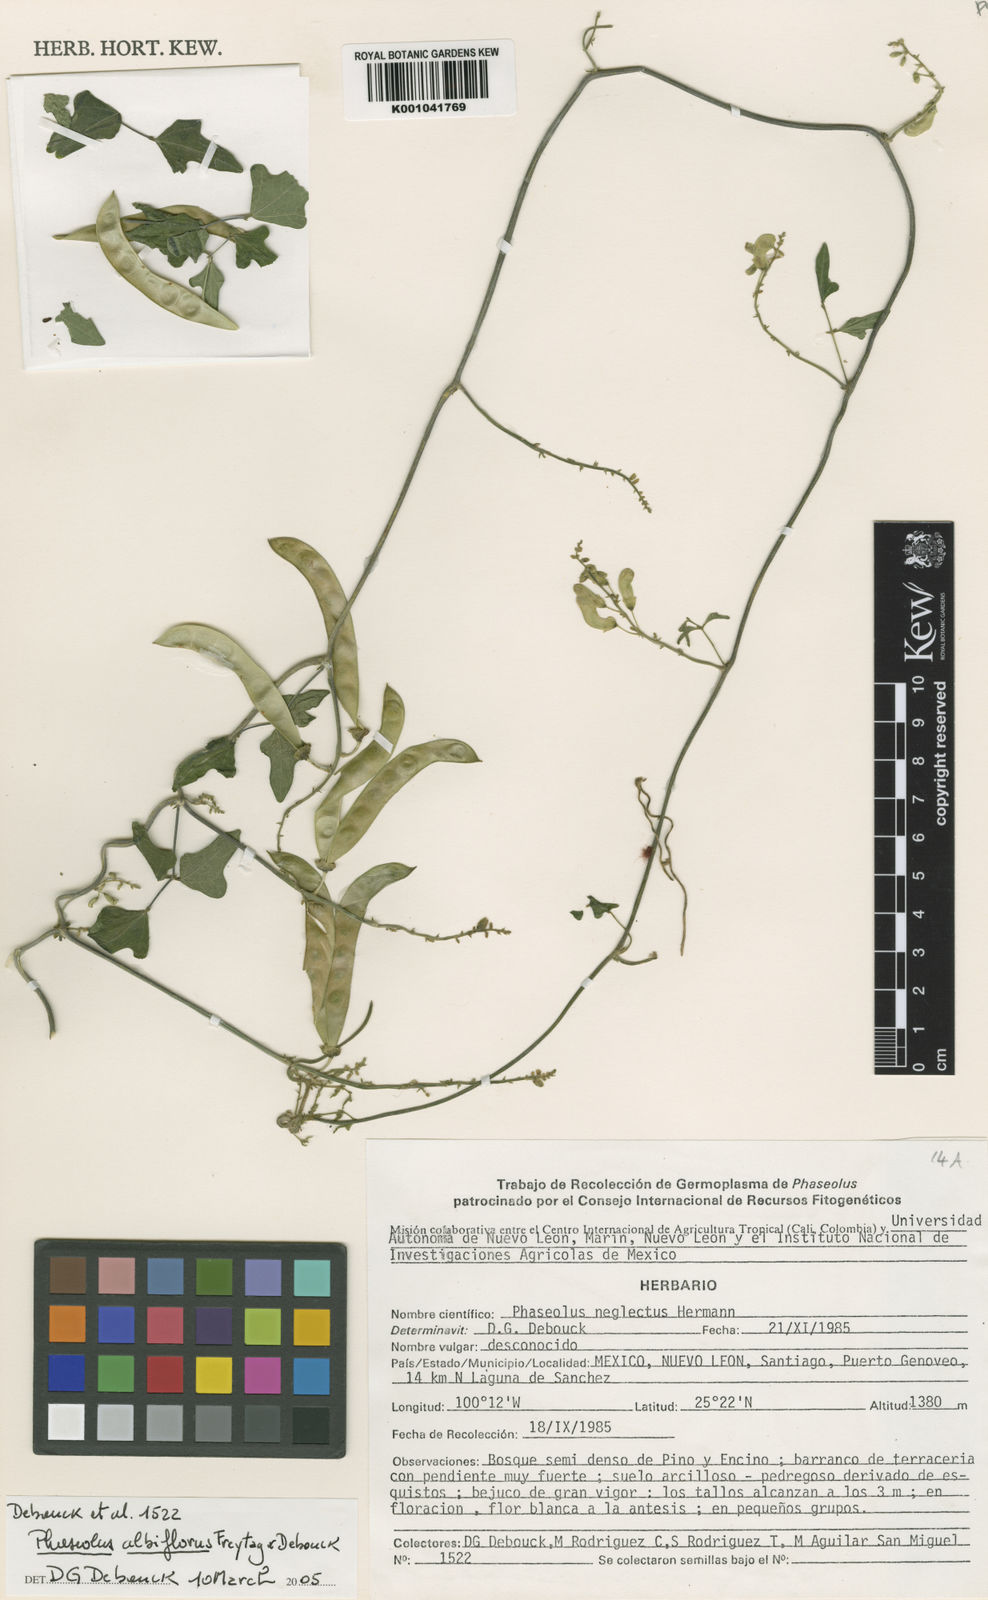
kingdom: Plantae
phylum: Tracheophyta
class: Magnoliopsida
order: Fabales
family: Fabaceae
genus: Phaseolus
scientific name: Phaseolus albiflorus
